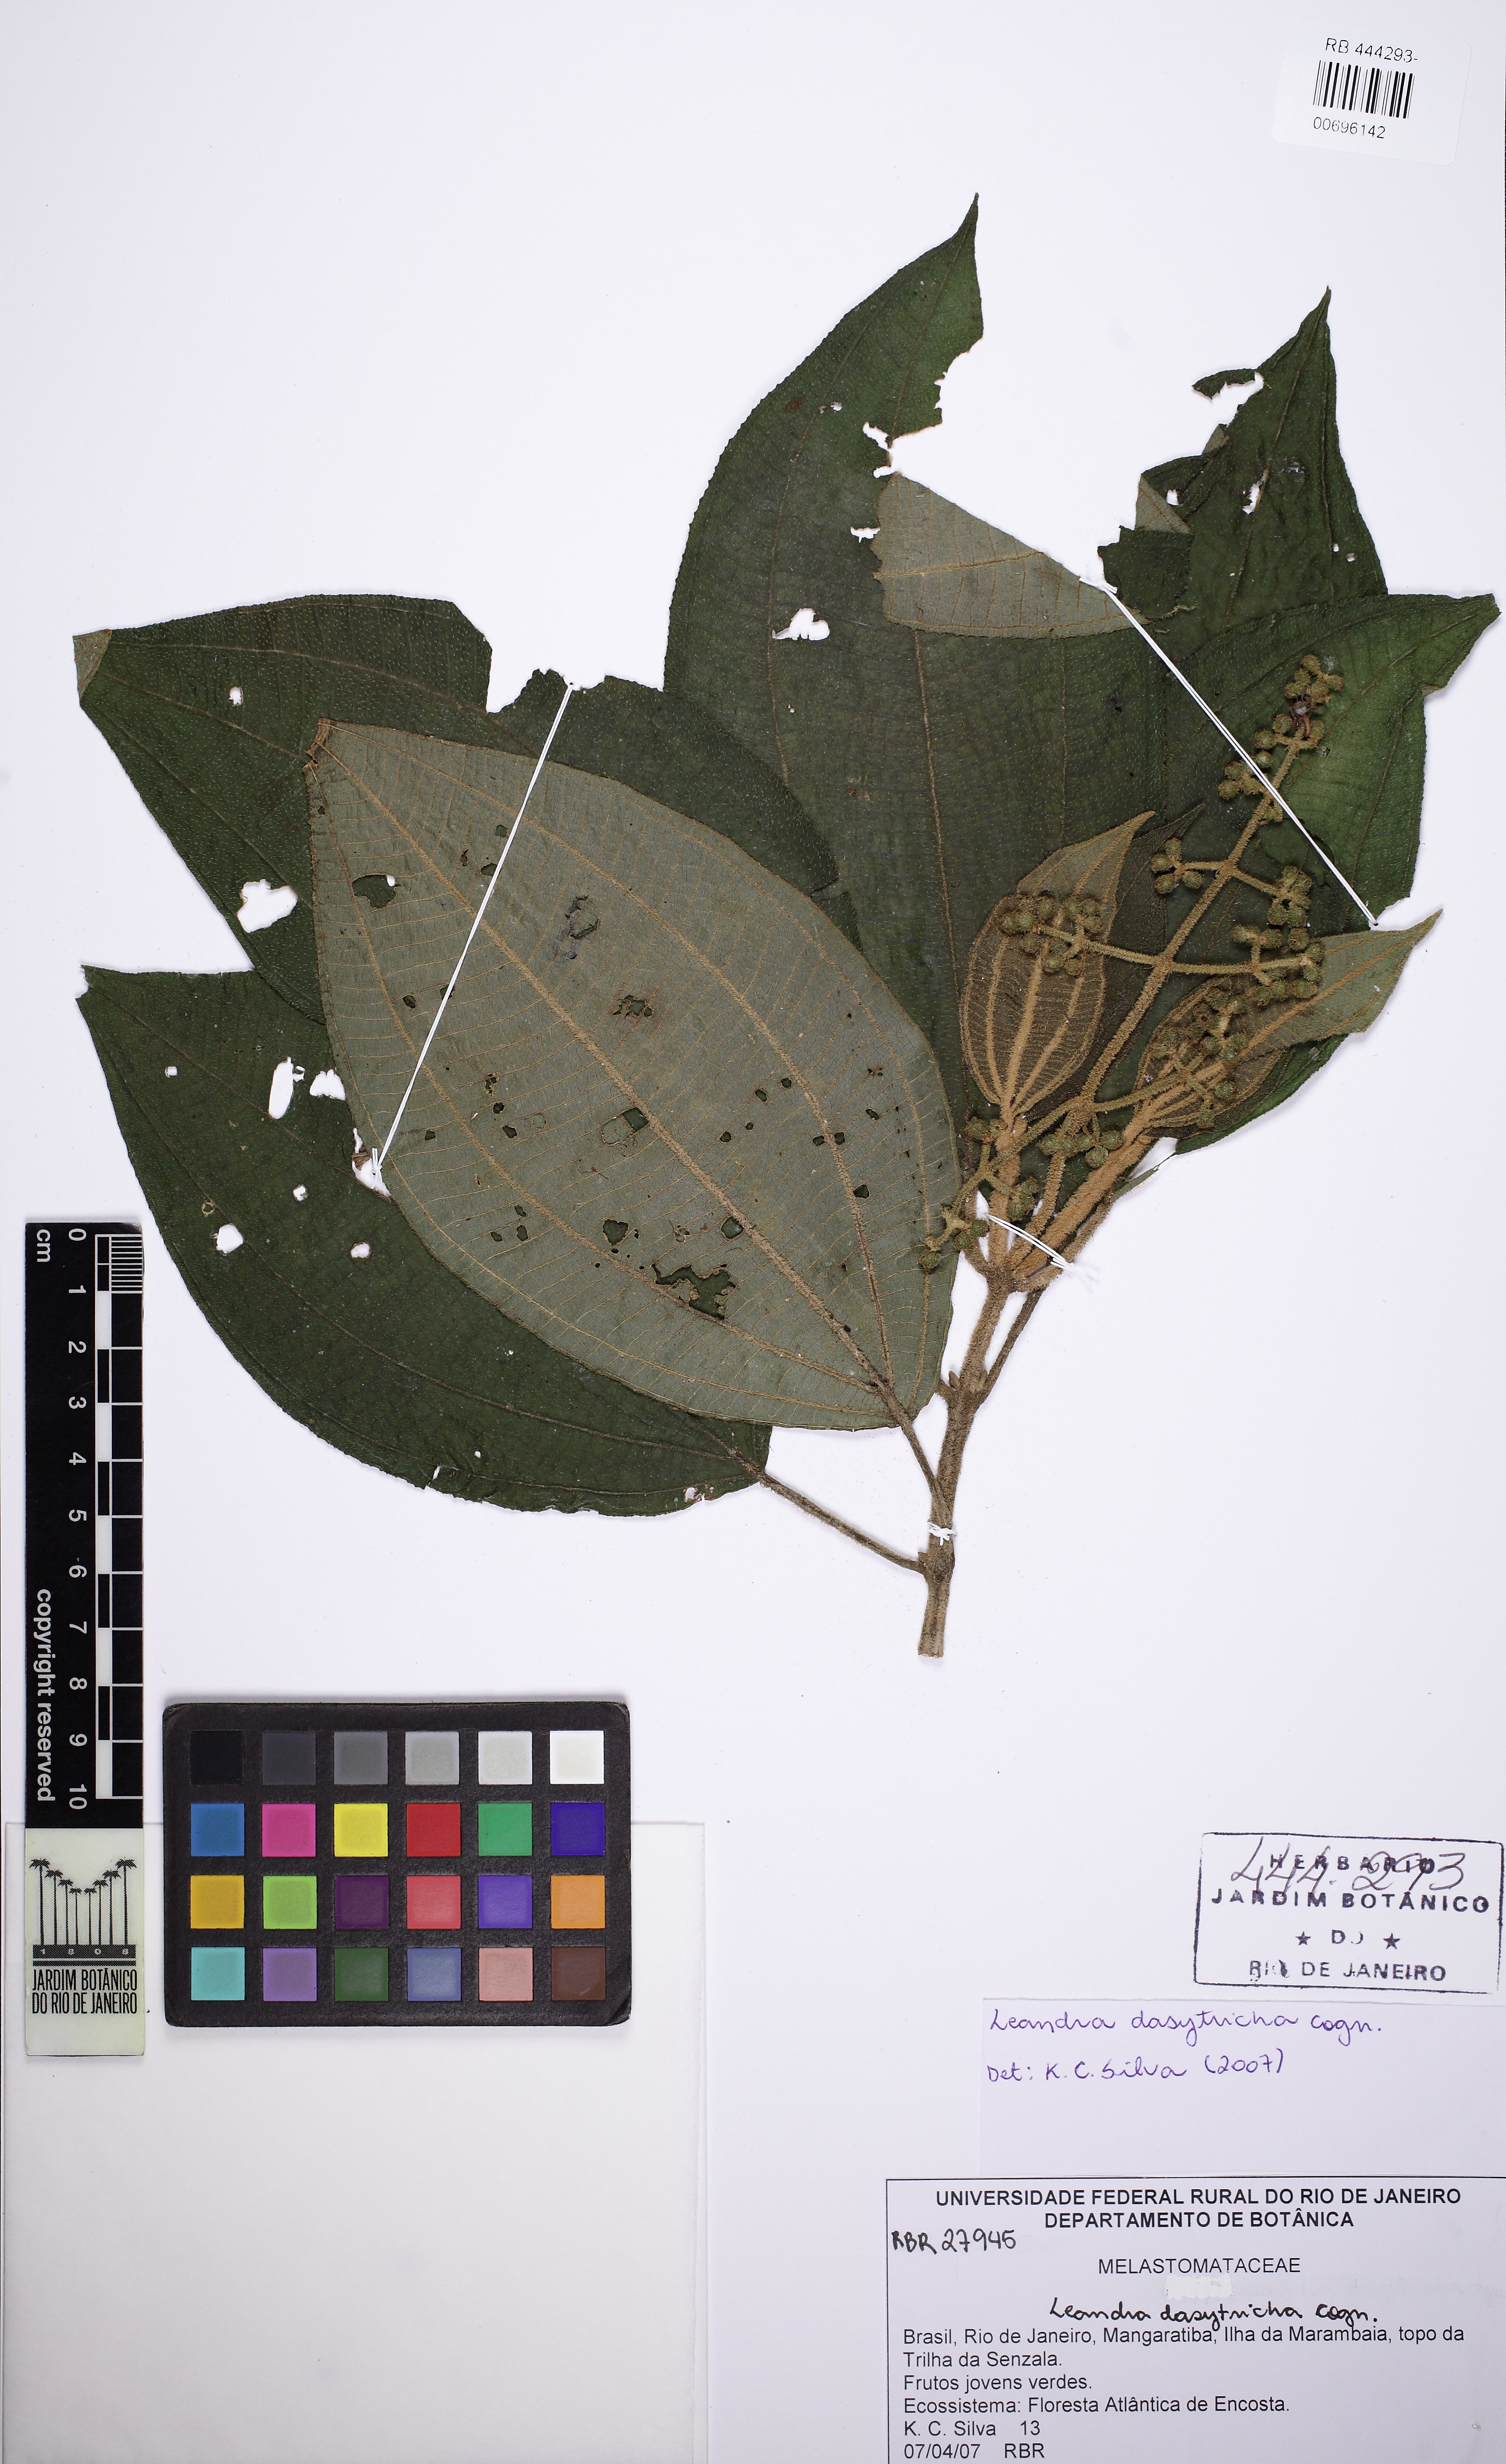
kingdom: Plantae
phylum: Tracheophyta
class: Magnoliopsida
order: Myrtales
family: Melastomataceae
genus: Miconia
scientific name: Miconia dasytricha
